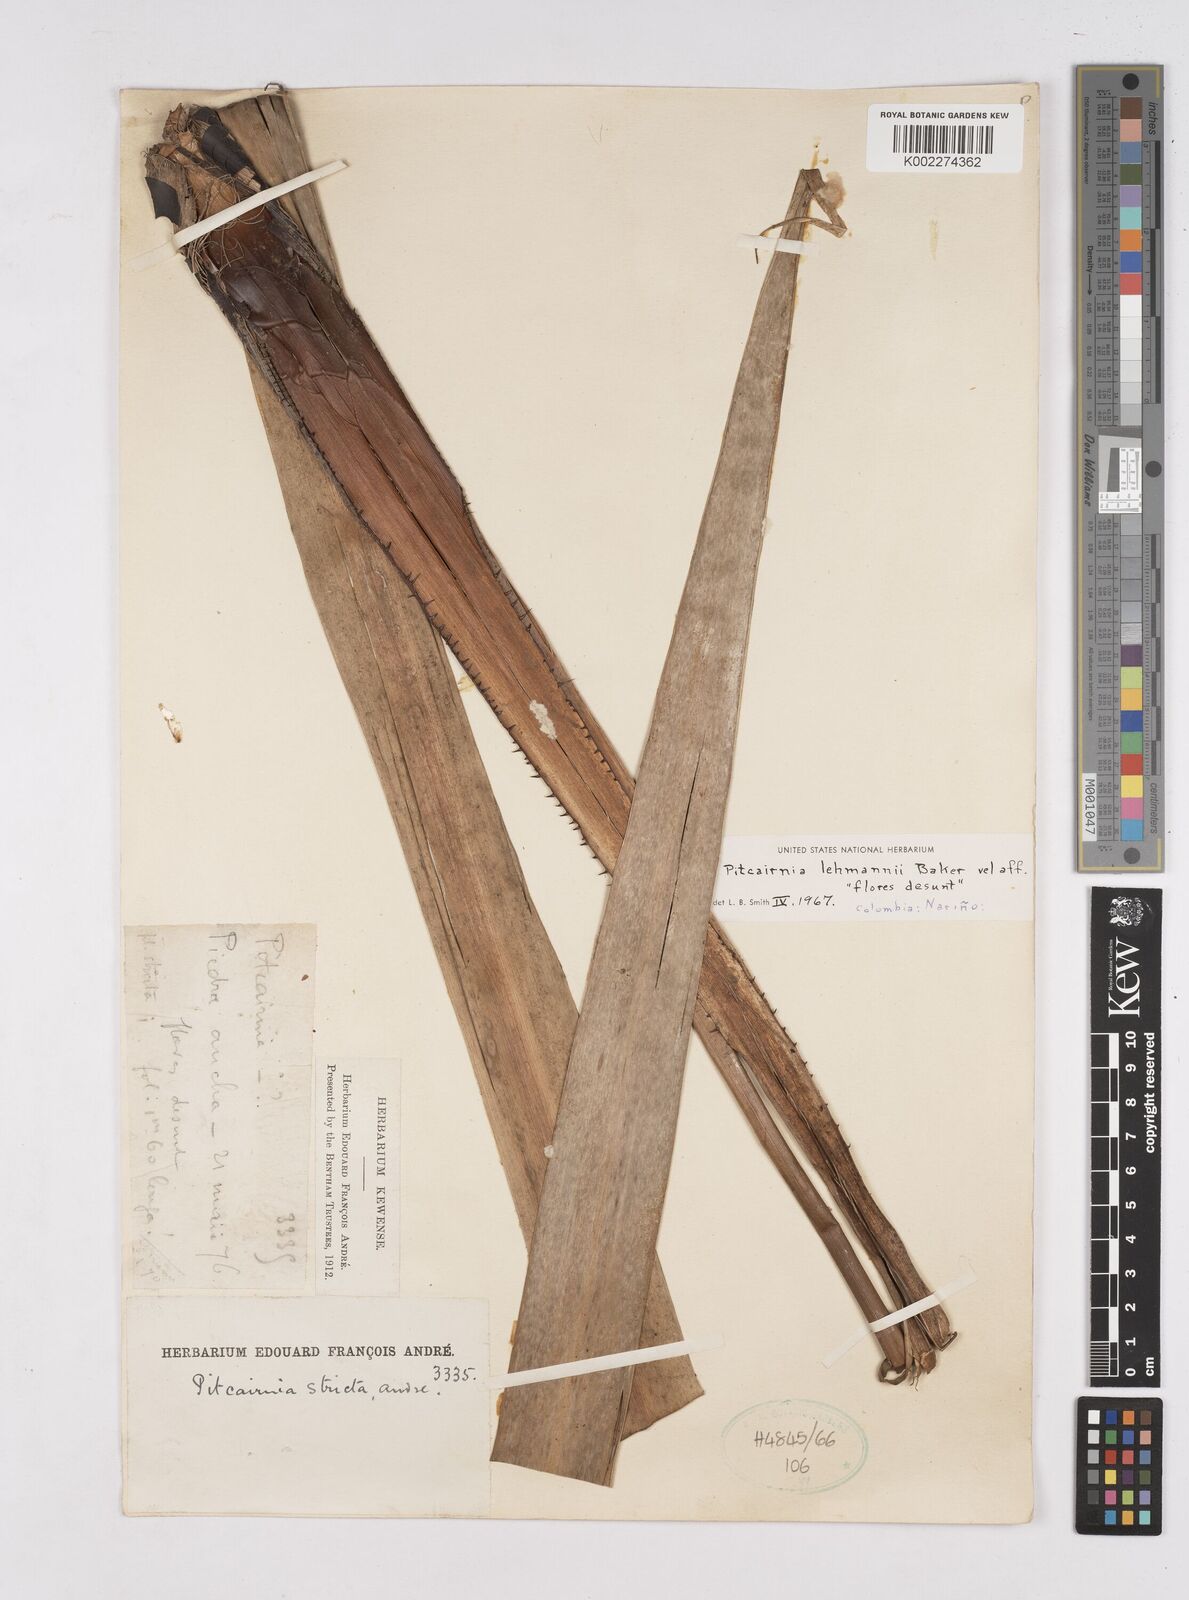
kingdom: Plantae
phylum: Tracheophyta
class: Liliopsida
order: Poales
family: Bromeliaceae
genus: Pitcairnia
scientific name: Pitcairnia lehmannii
